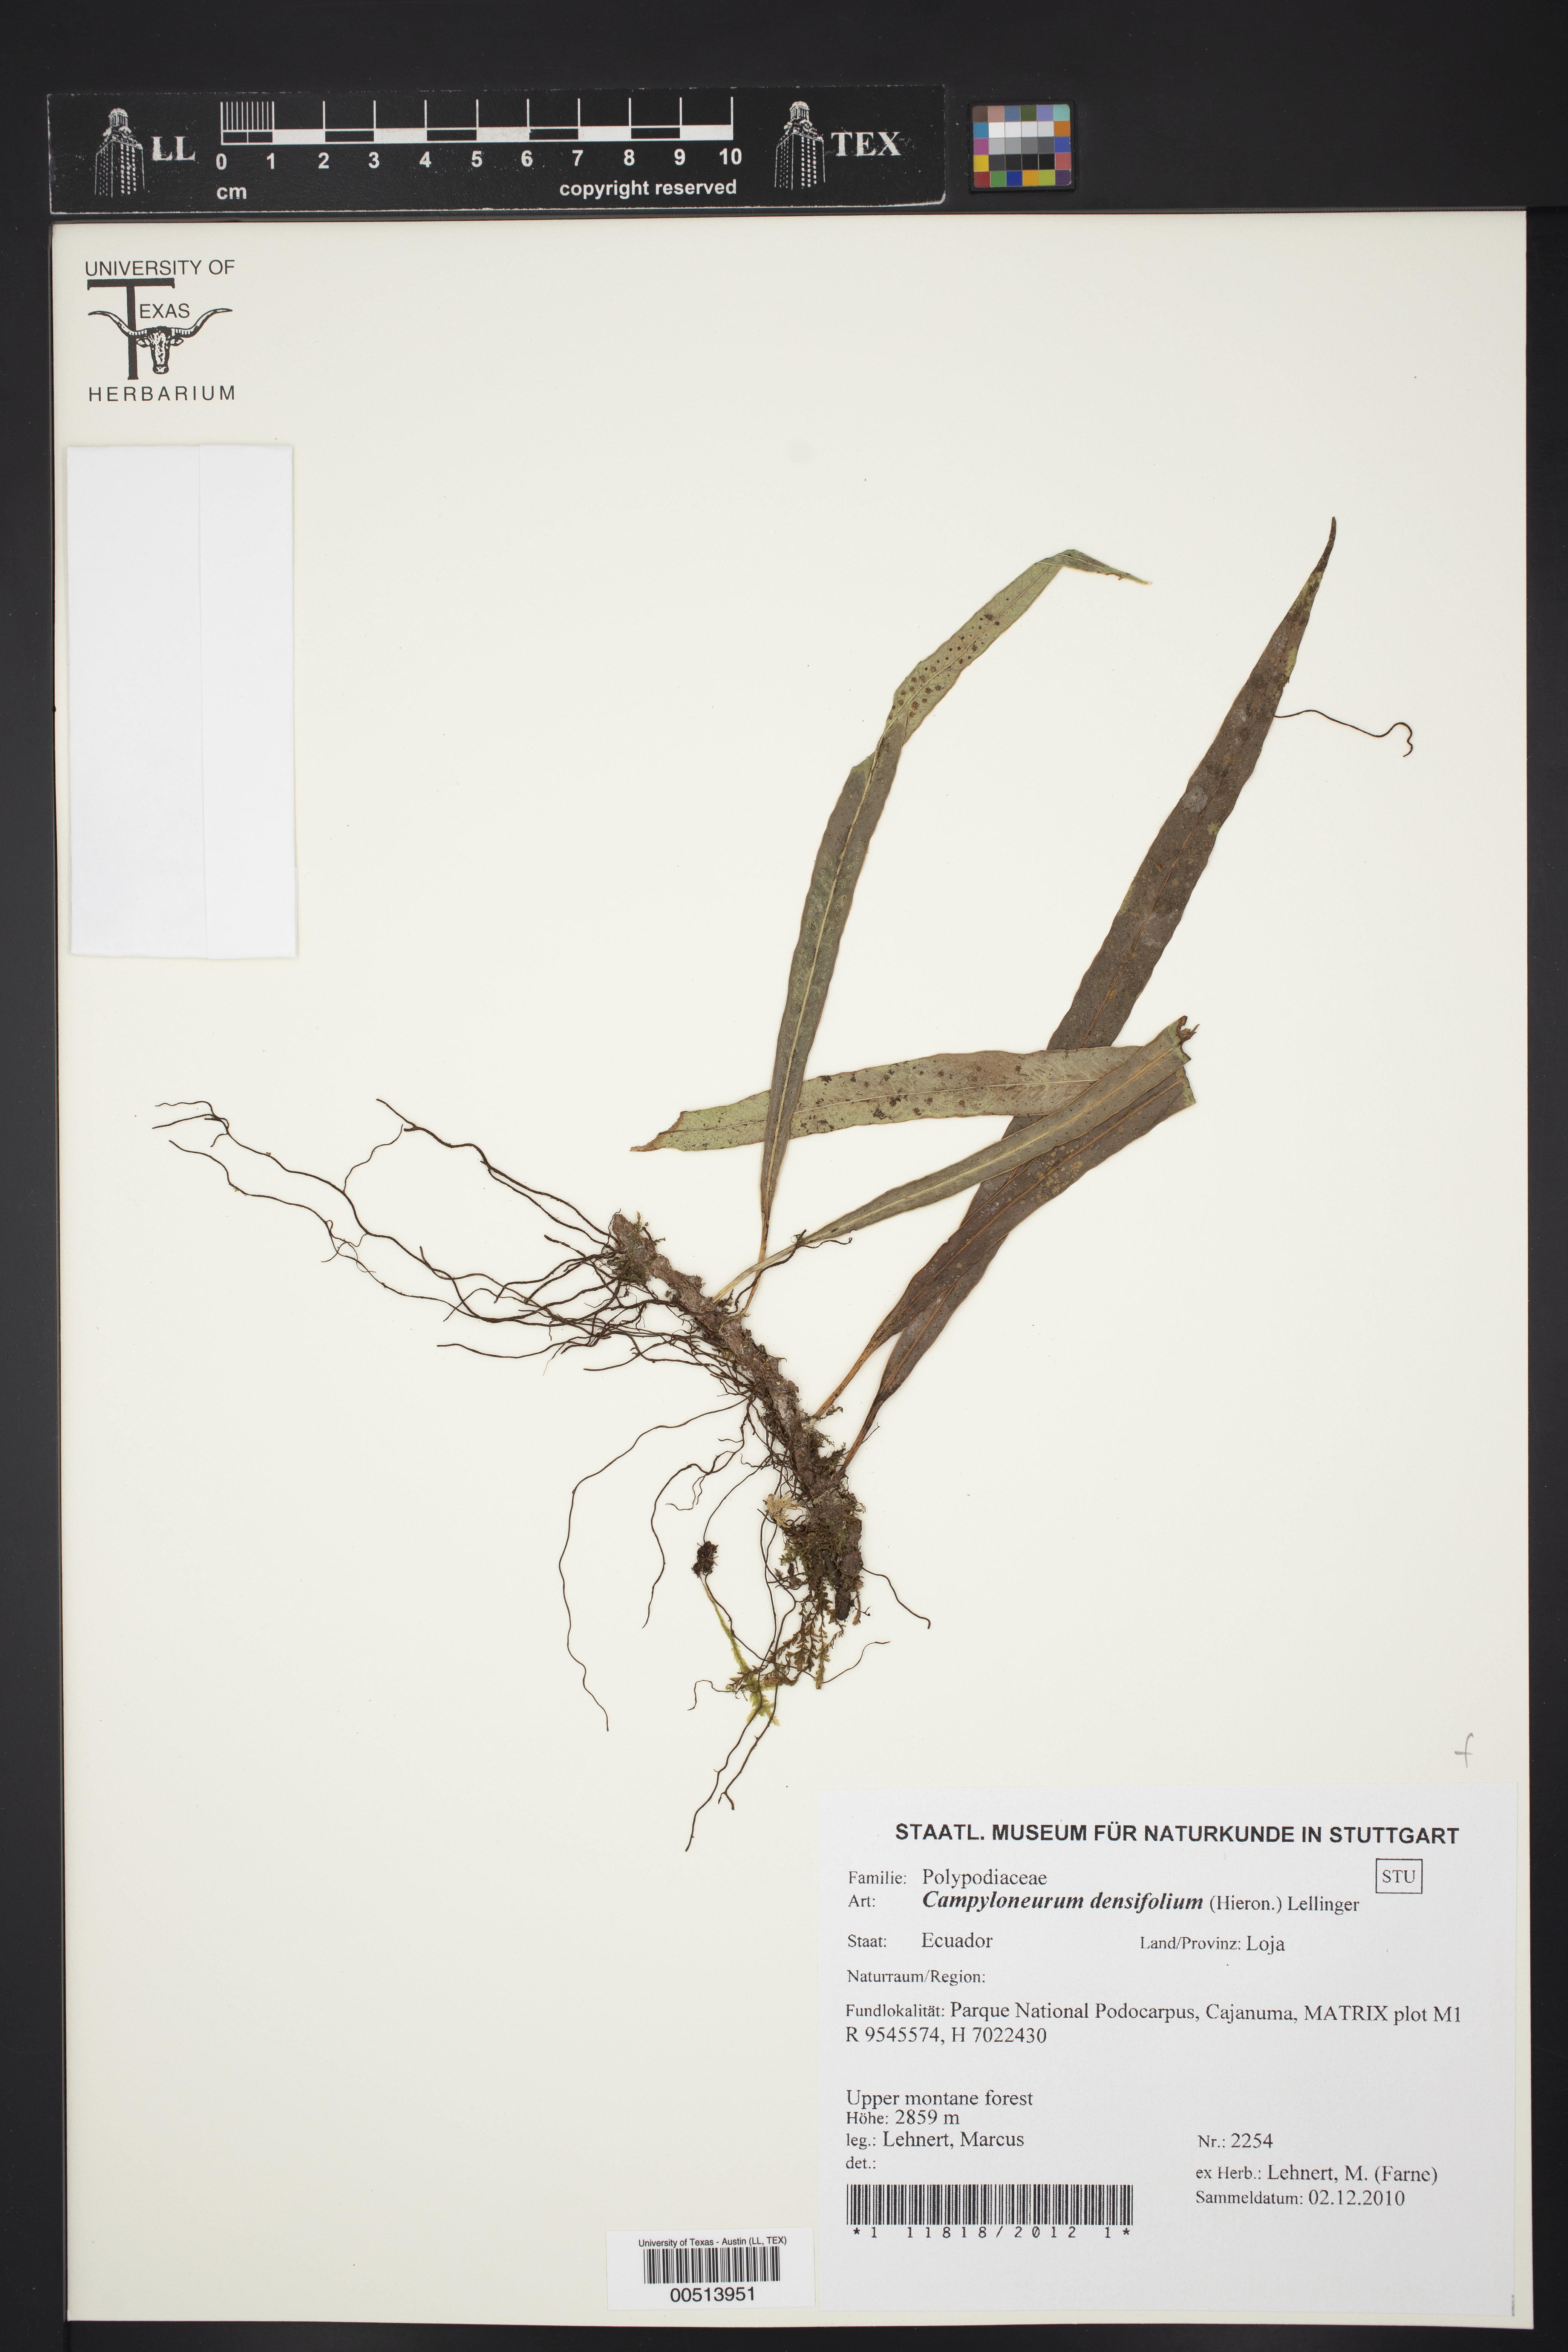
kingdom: Plantae
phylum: Tracheophyta
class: Polypodiopsida
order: Polypodiales
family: Polypodiaceae
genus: Campyloneurum
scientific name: Campyloneurum densifolium
